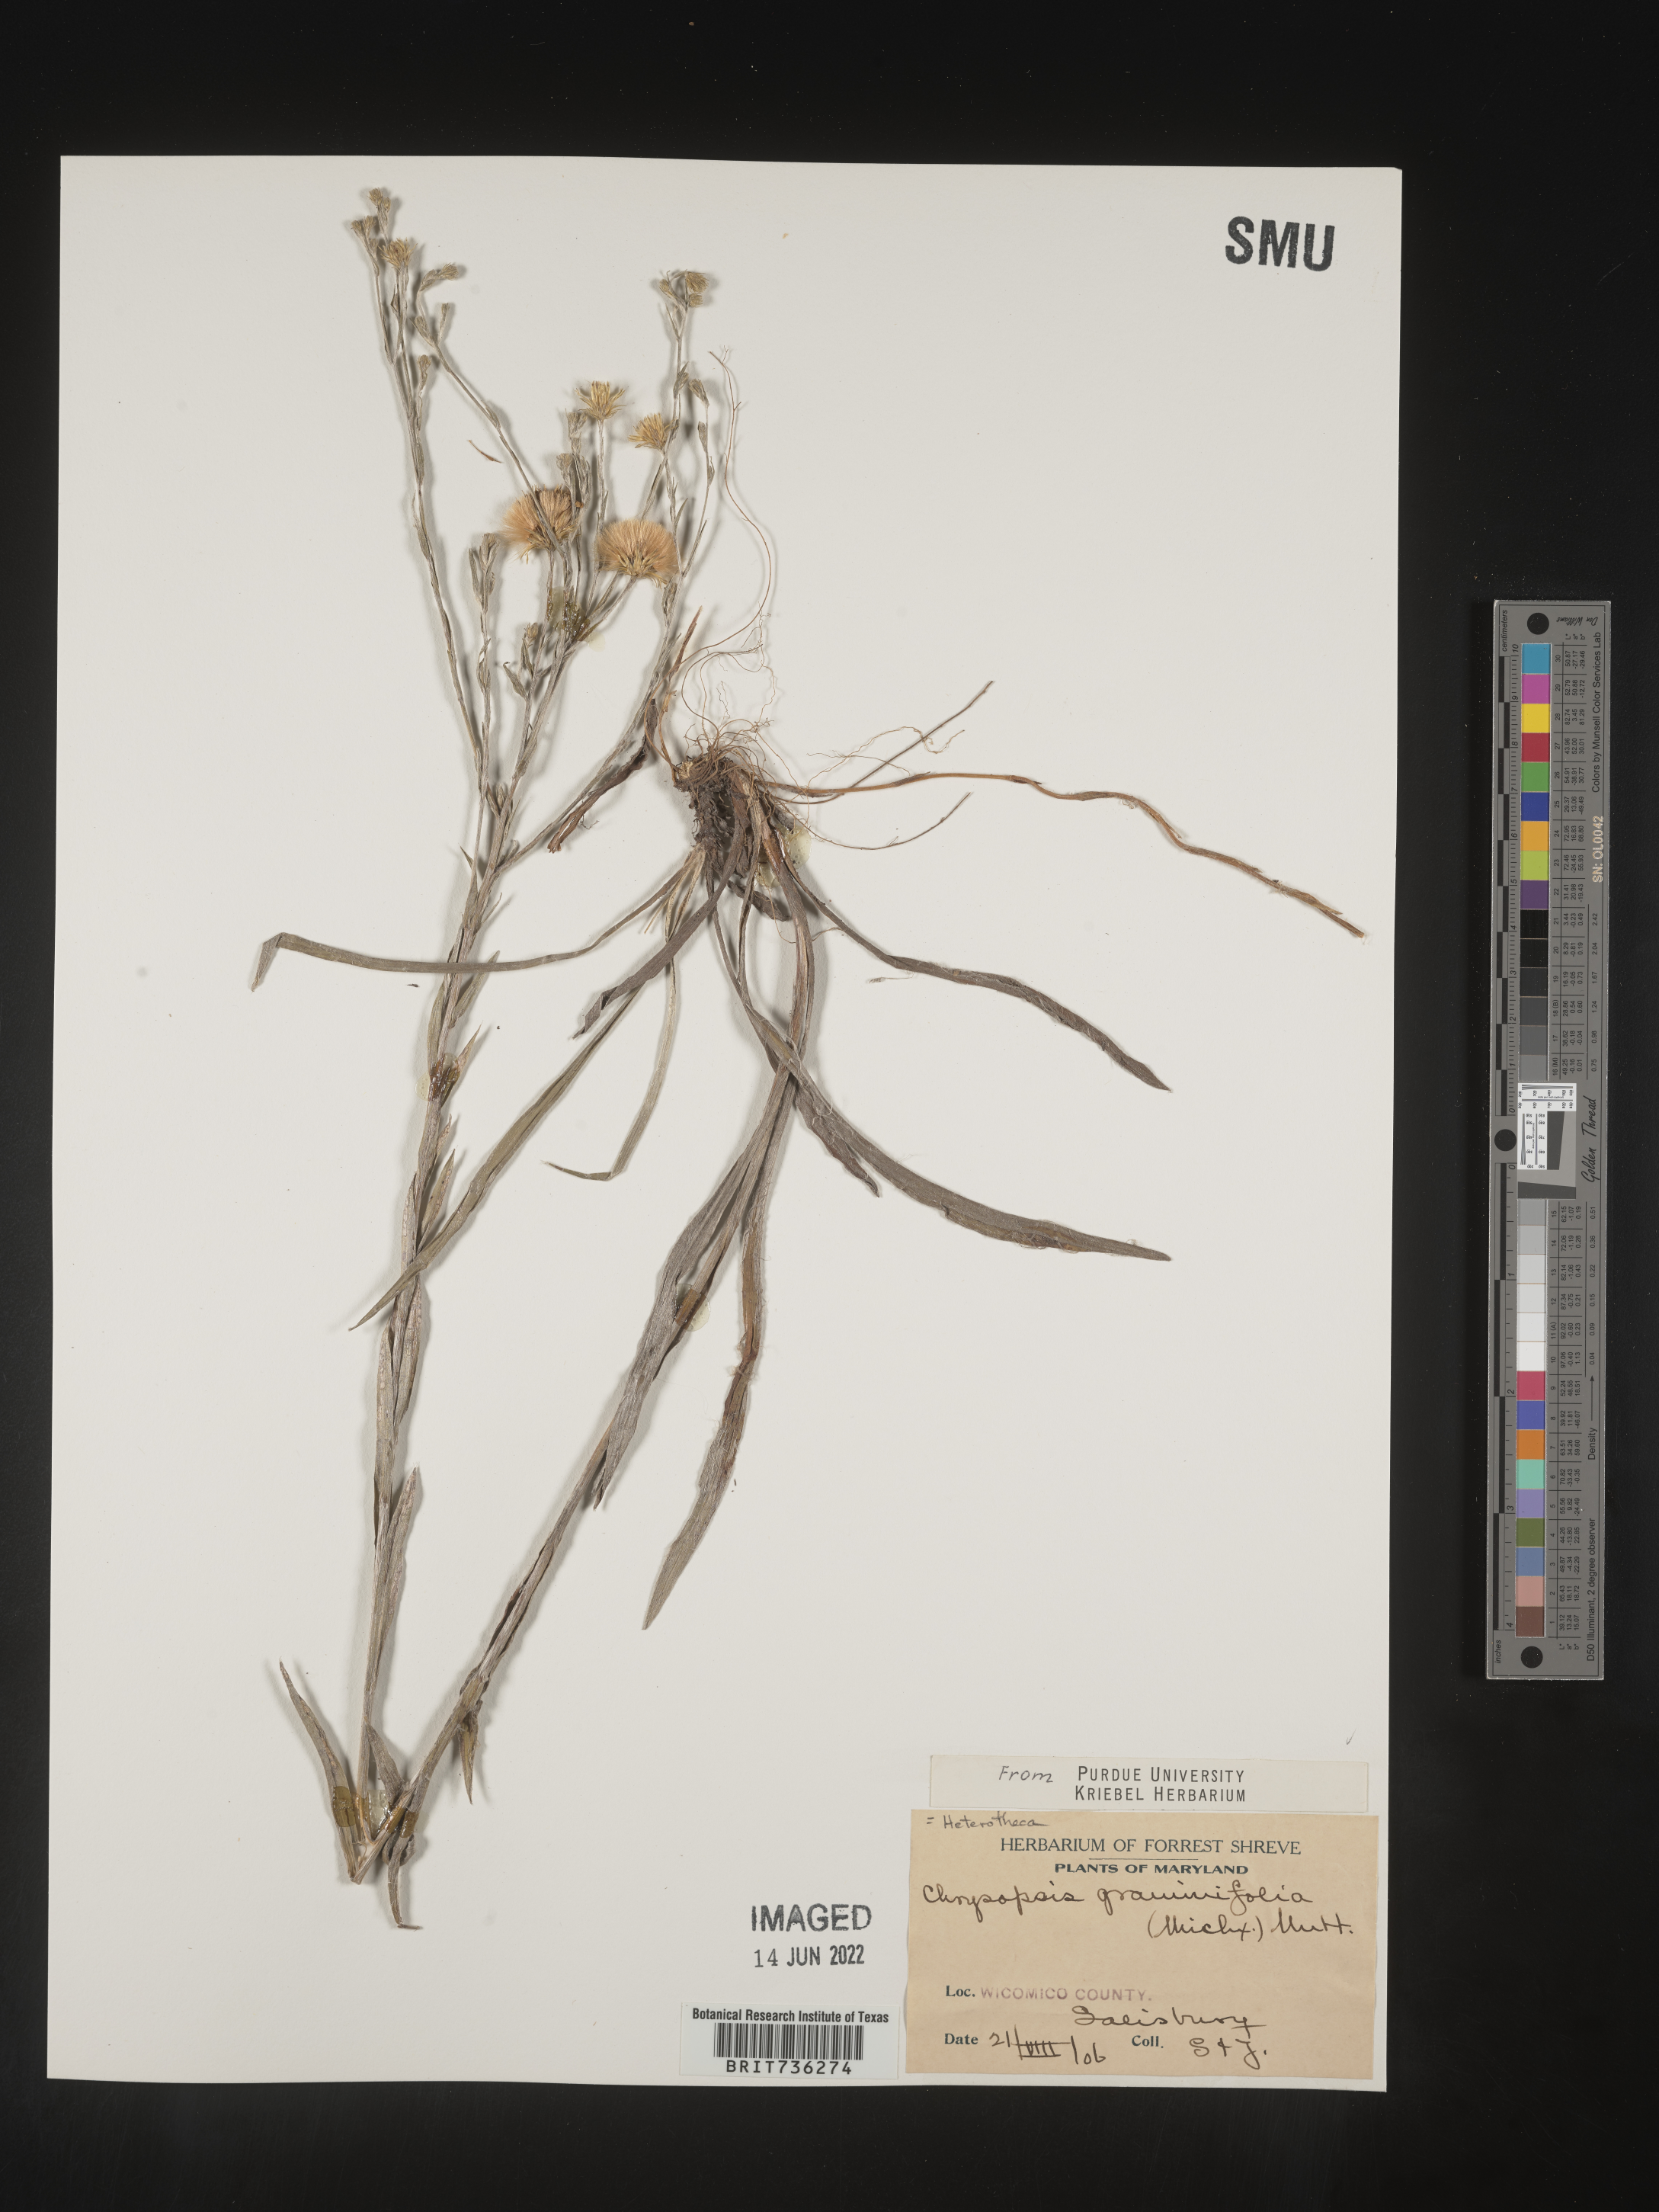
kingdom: Plantae
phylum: Tracheophyta
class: Magnoliopsida
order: Asterales
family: Asteraceae
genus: Pityopsis
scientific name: Pityopsis graminifolia
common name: Grass-leaf golden-aster
